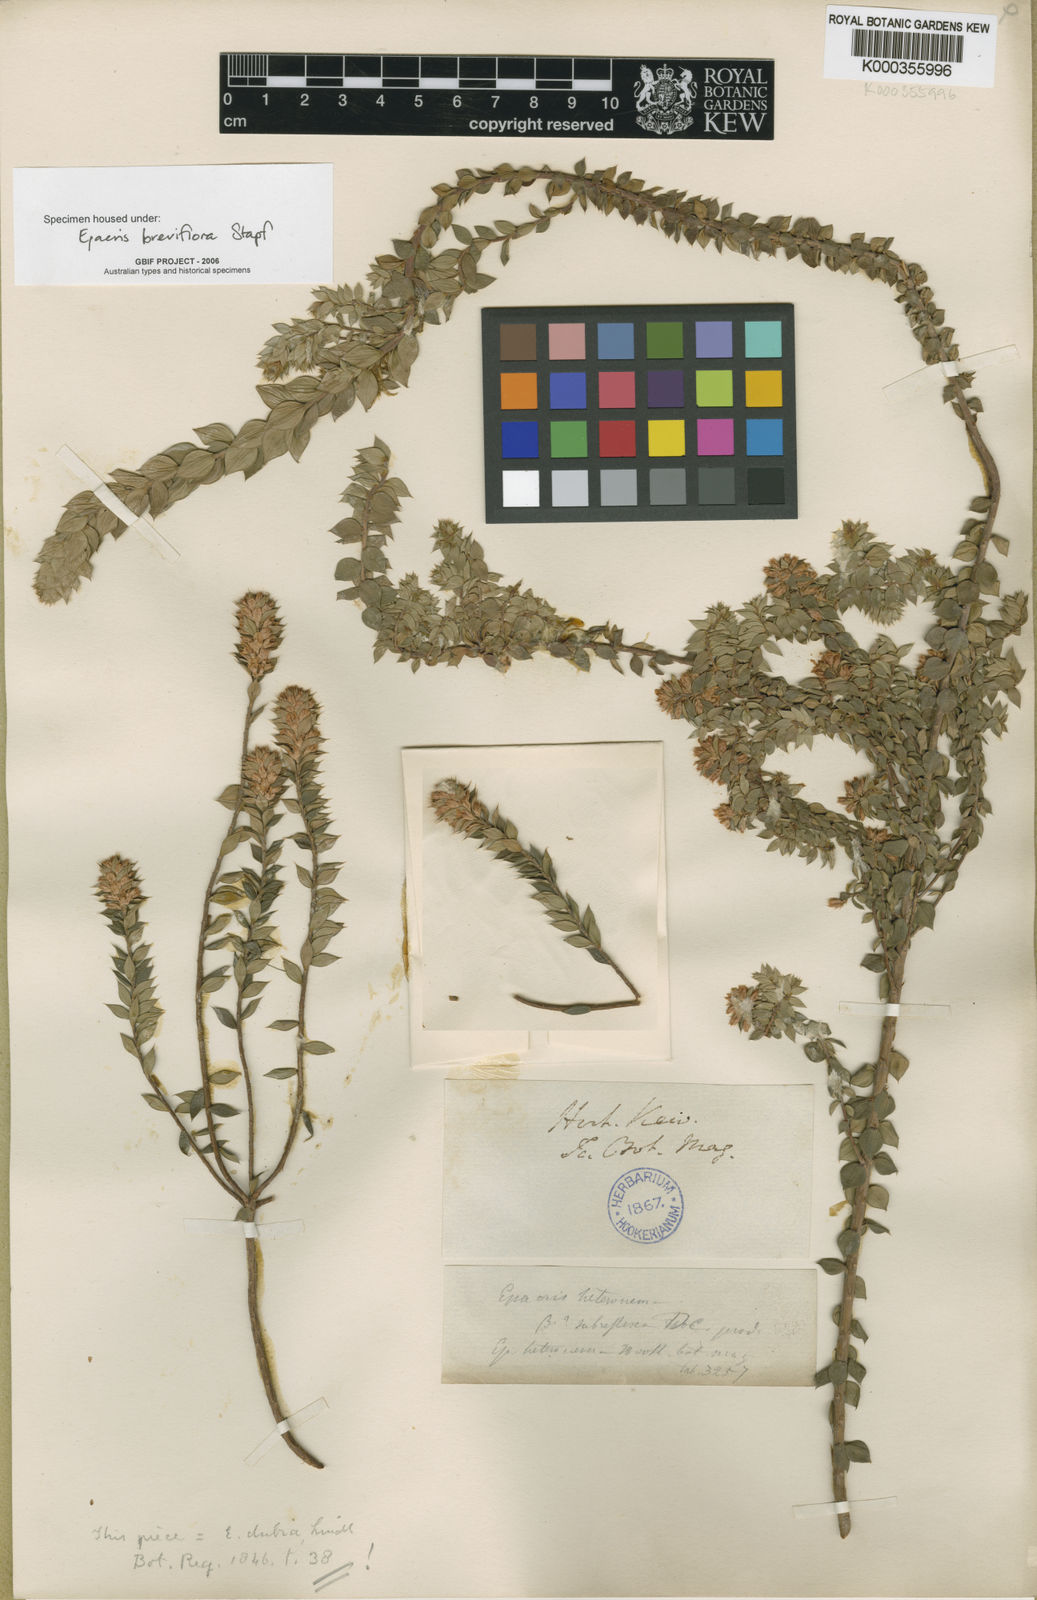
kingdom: Plantae
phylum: Tracheophyta
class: Magnoliopsida
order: Ericales
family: Ericaceae
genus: Epacris
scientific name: Epacris breviflora
